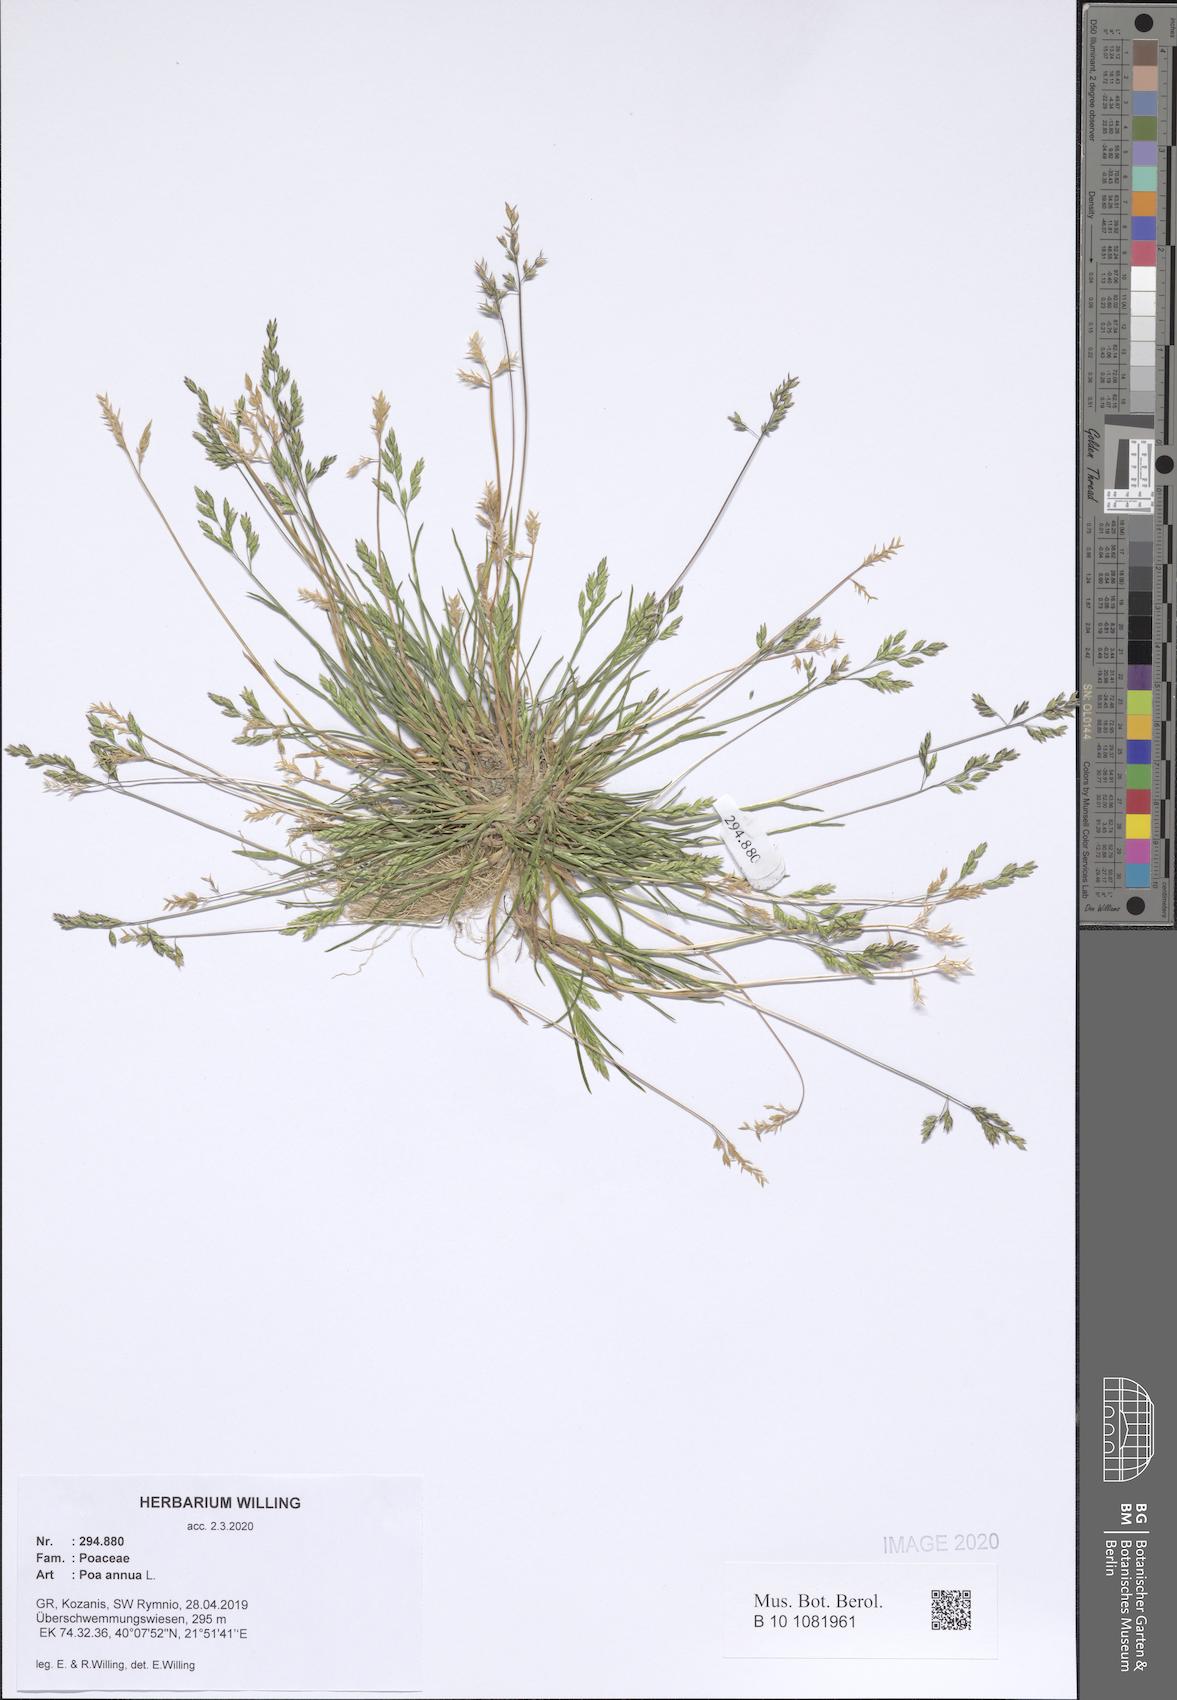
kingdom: Plantae
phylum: Tracheophyta
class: Liliopsida
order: Poales
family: Poaceae
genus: Poa
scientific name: Poa annua
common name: Annual bluegrass
